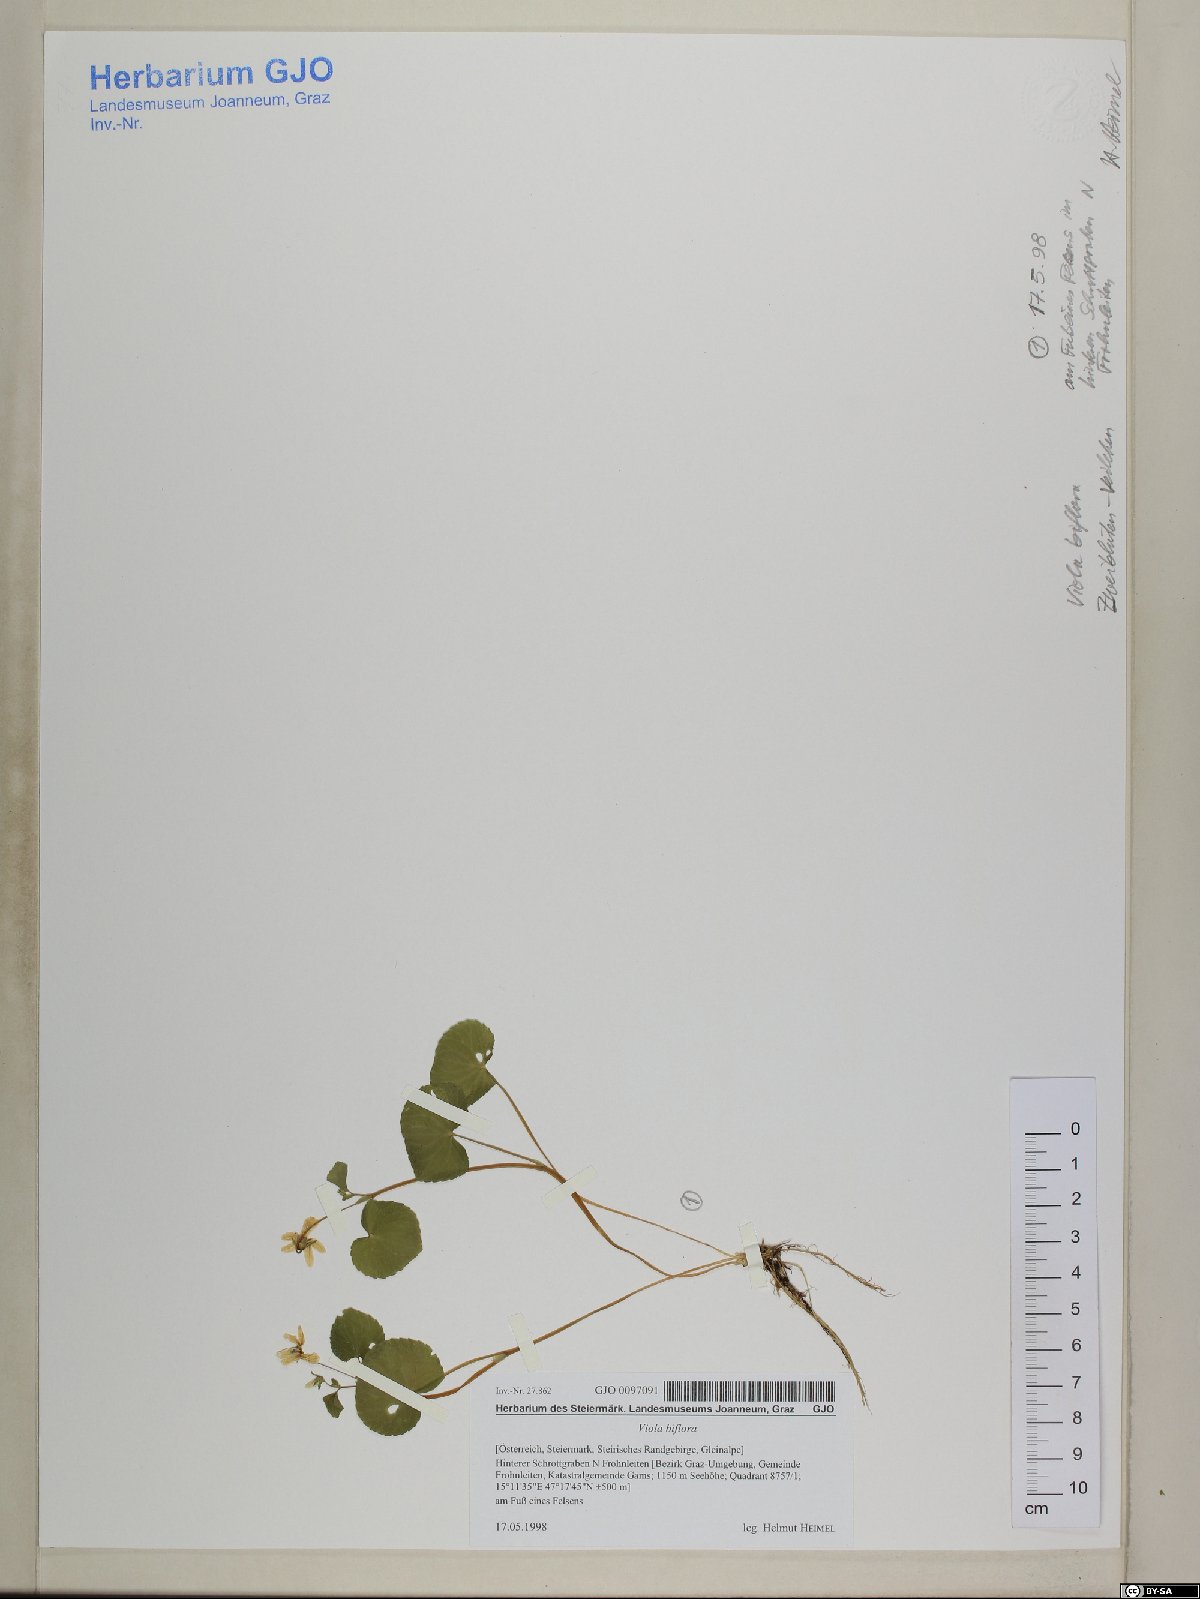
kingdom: Plantae
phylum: Tracheophyta
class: Magnoliopsida
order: Malpighiales
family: Violaceae
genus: Viola
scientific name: Viola biflora
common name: Alpine yellow violet
